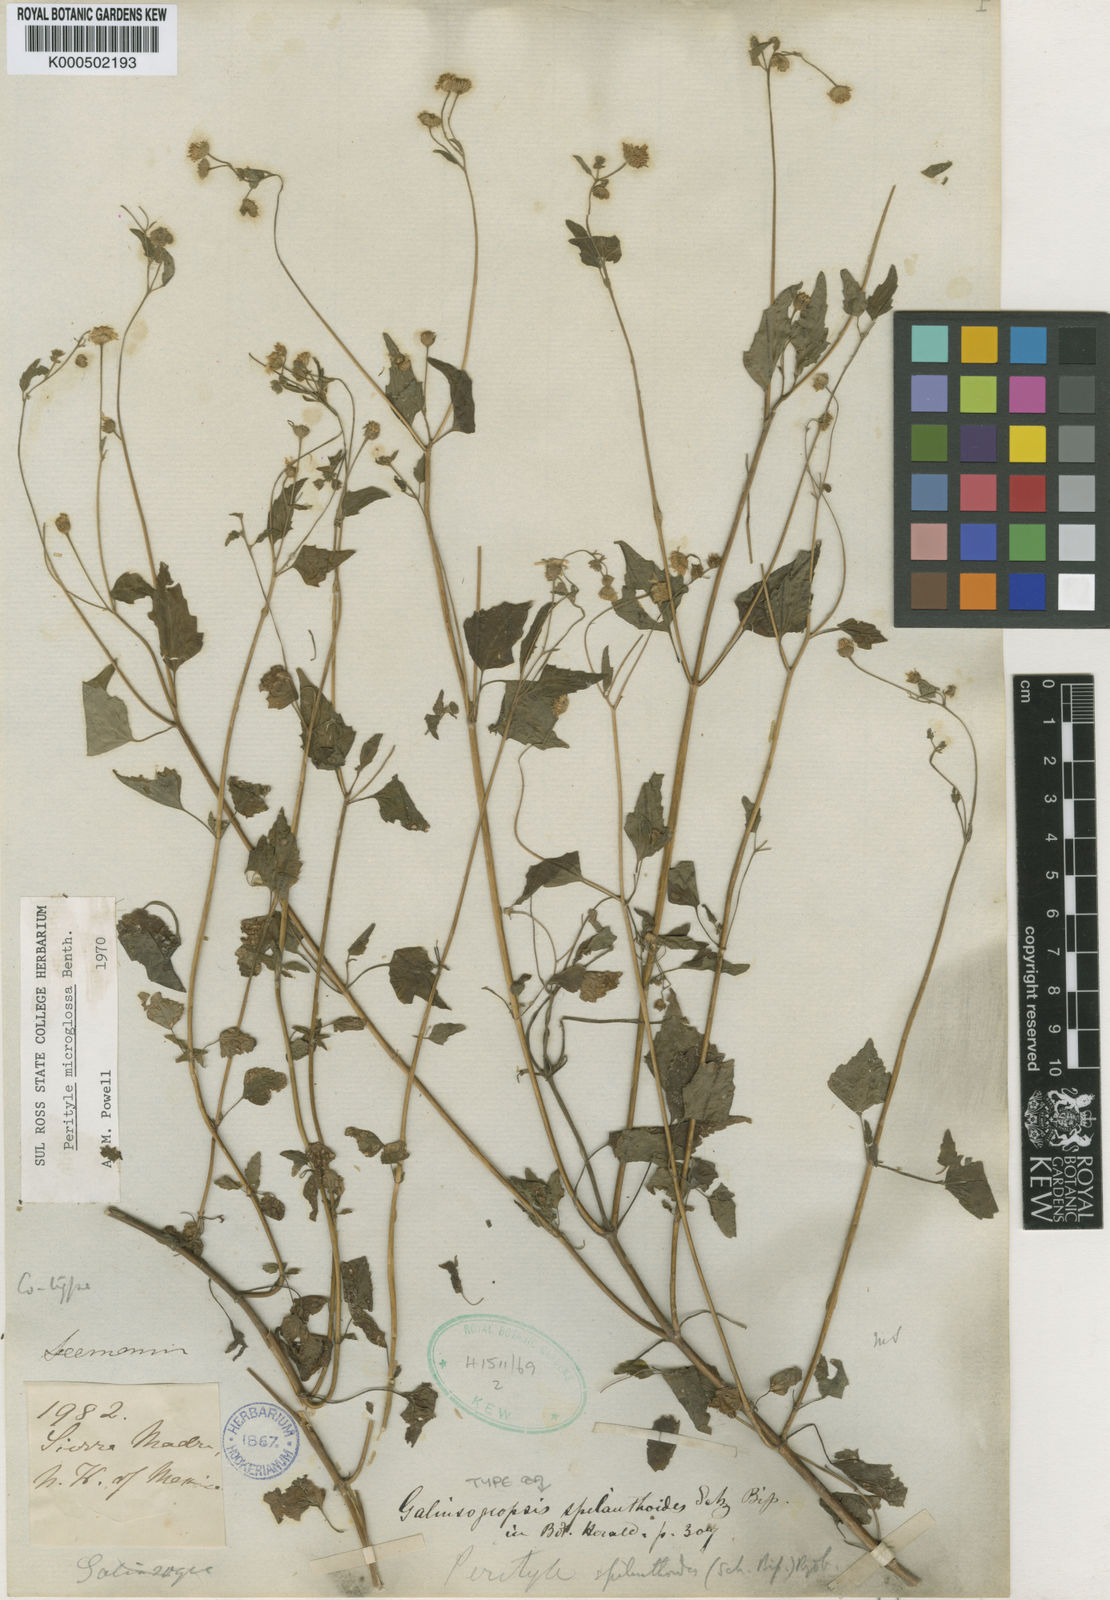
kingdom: Plantae
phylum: Tracheophyta
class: Magnoliopsida
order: Asterales
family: Asteraceae
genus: Galinsogeopsis
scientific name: Galinsogeopsis spilanthoides
